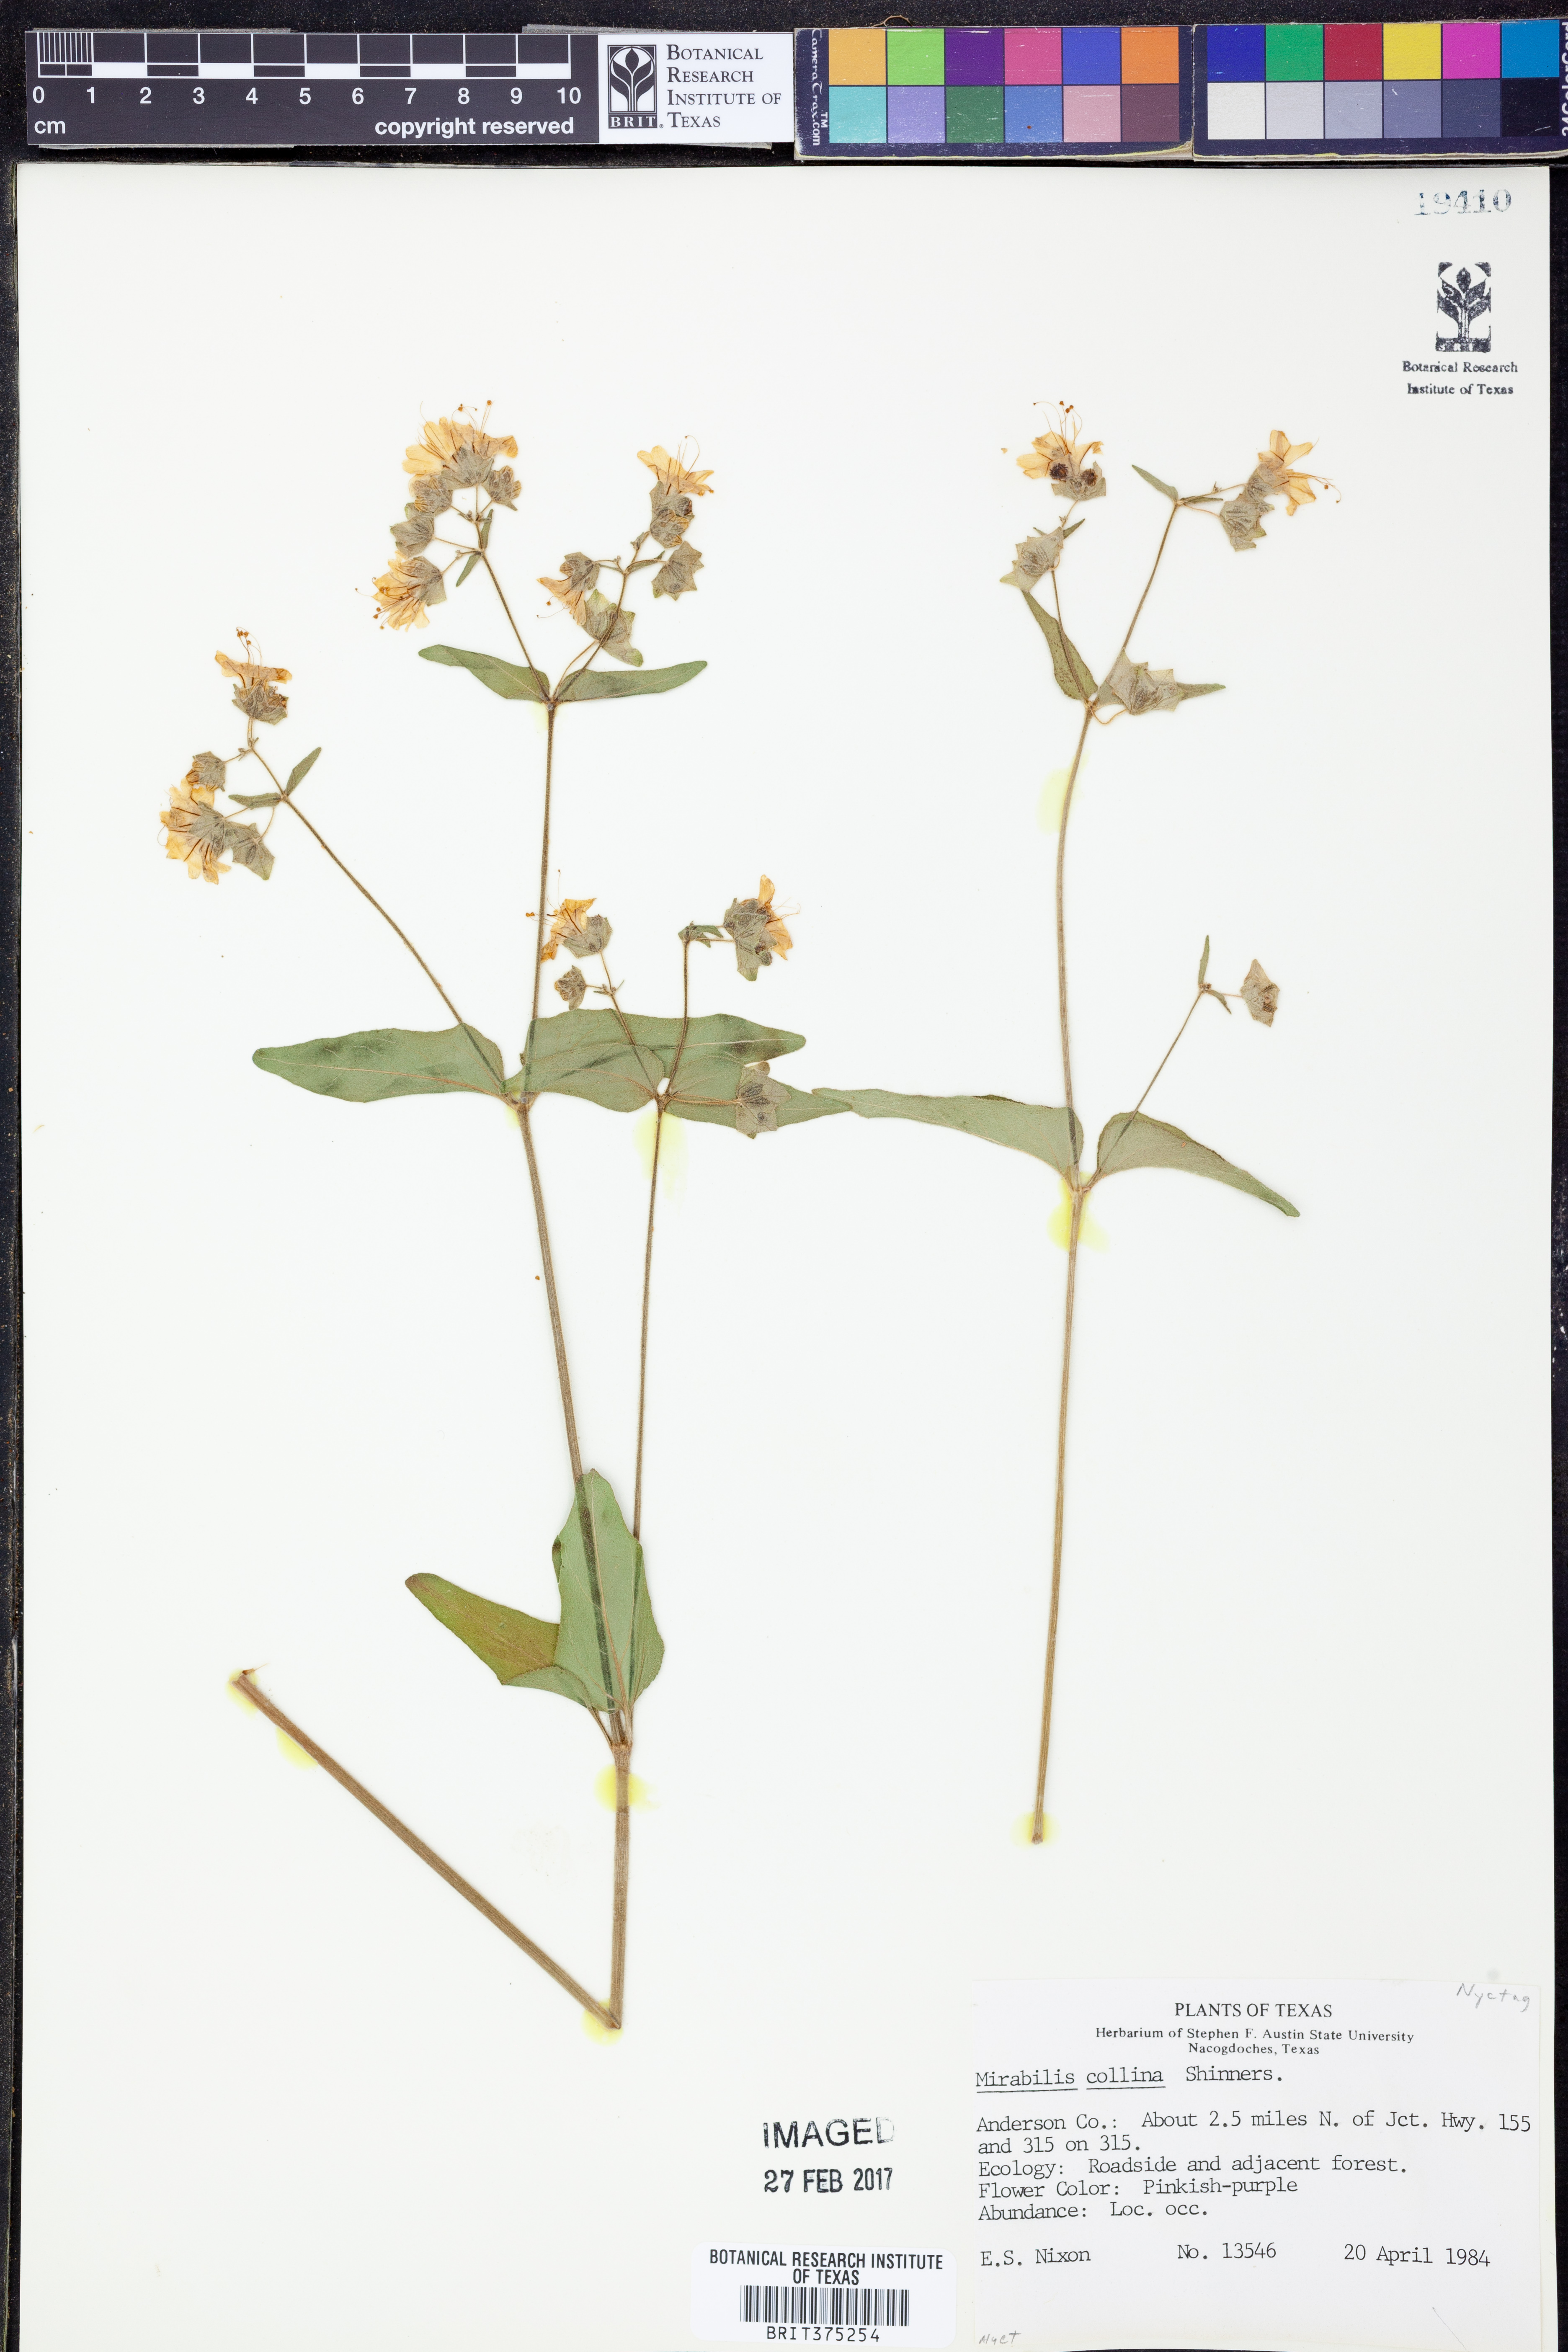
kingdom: Plantae
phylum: Tracheophyta
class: Magnoliopsida
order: Caryophyllales
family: Nyctaginaceae
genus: Mirabilis
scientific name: Mirabilis collina
